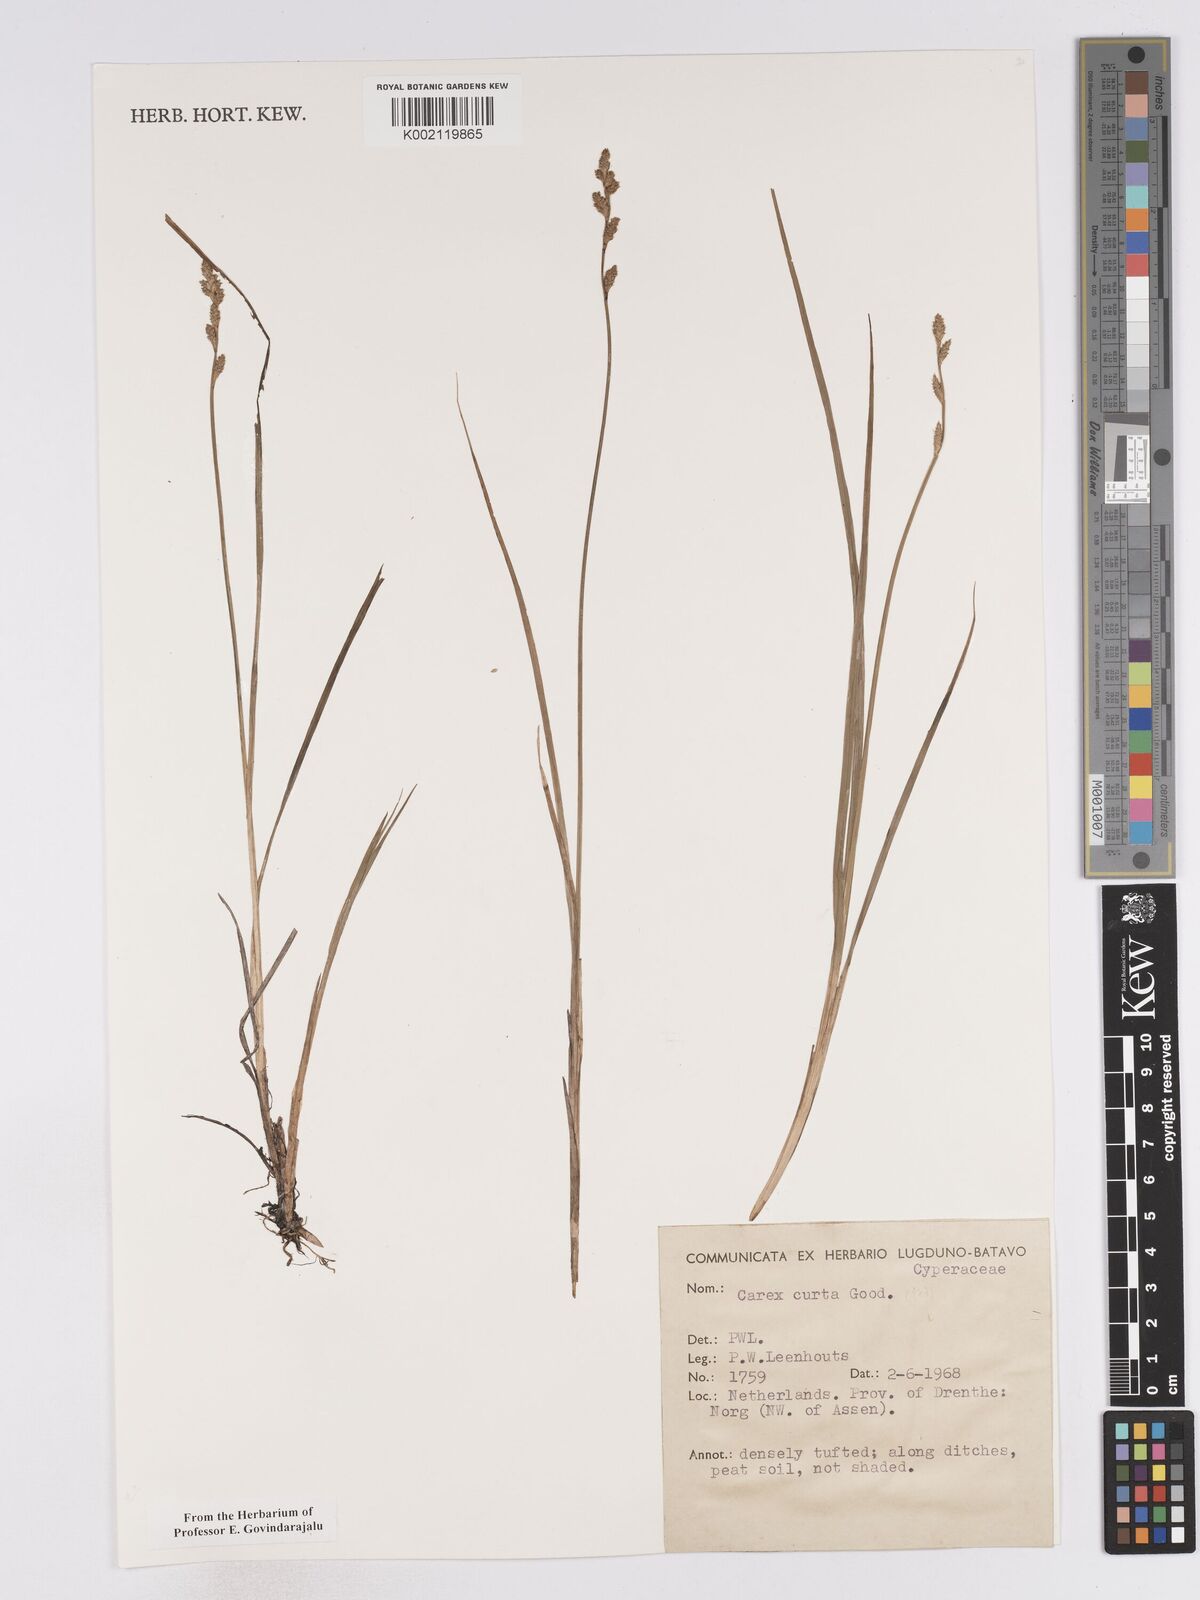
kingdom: Plantae
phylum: Tracheophyta
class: Liliopsida
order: Poales
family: Cyperaceae
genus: Carex
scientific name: Carex curta
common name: White sedge
